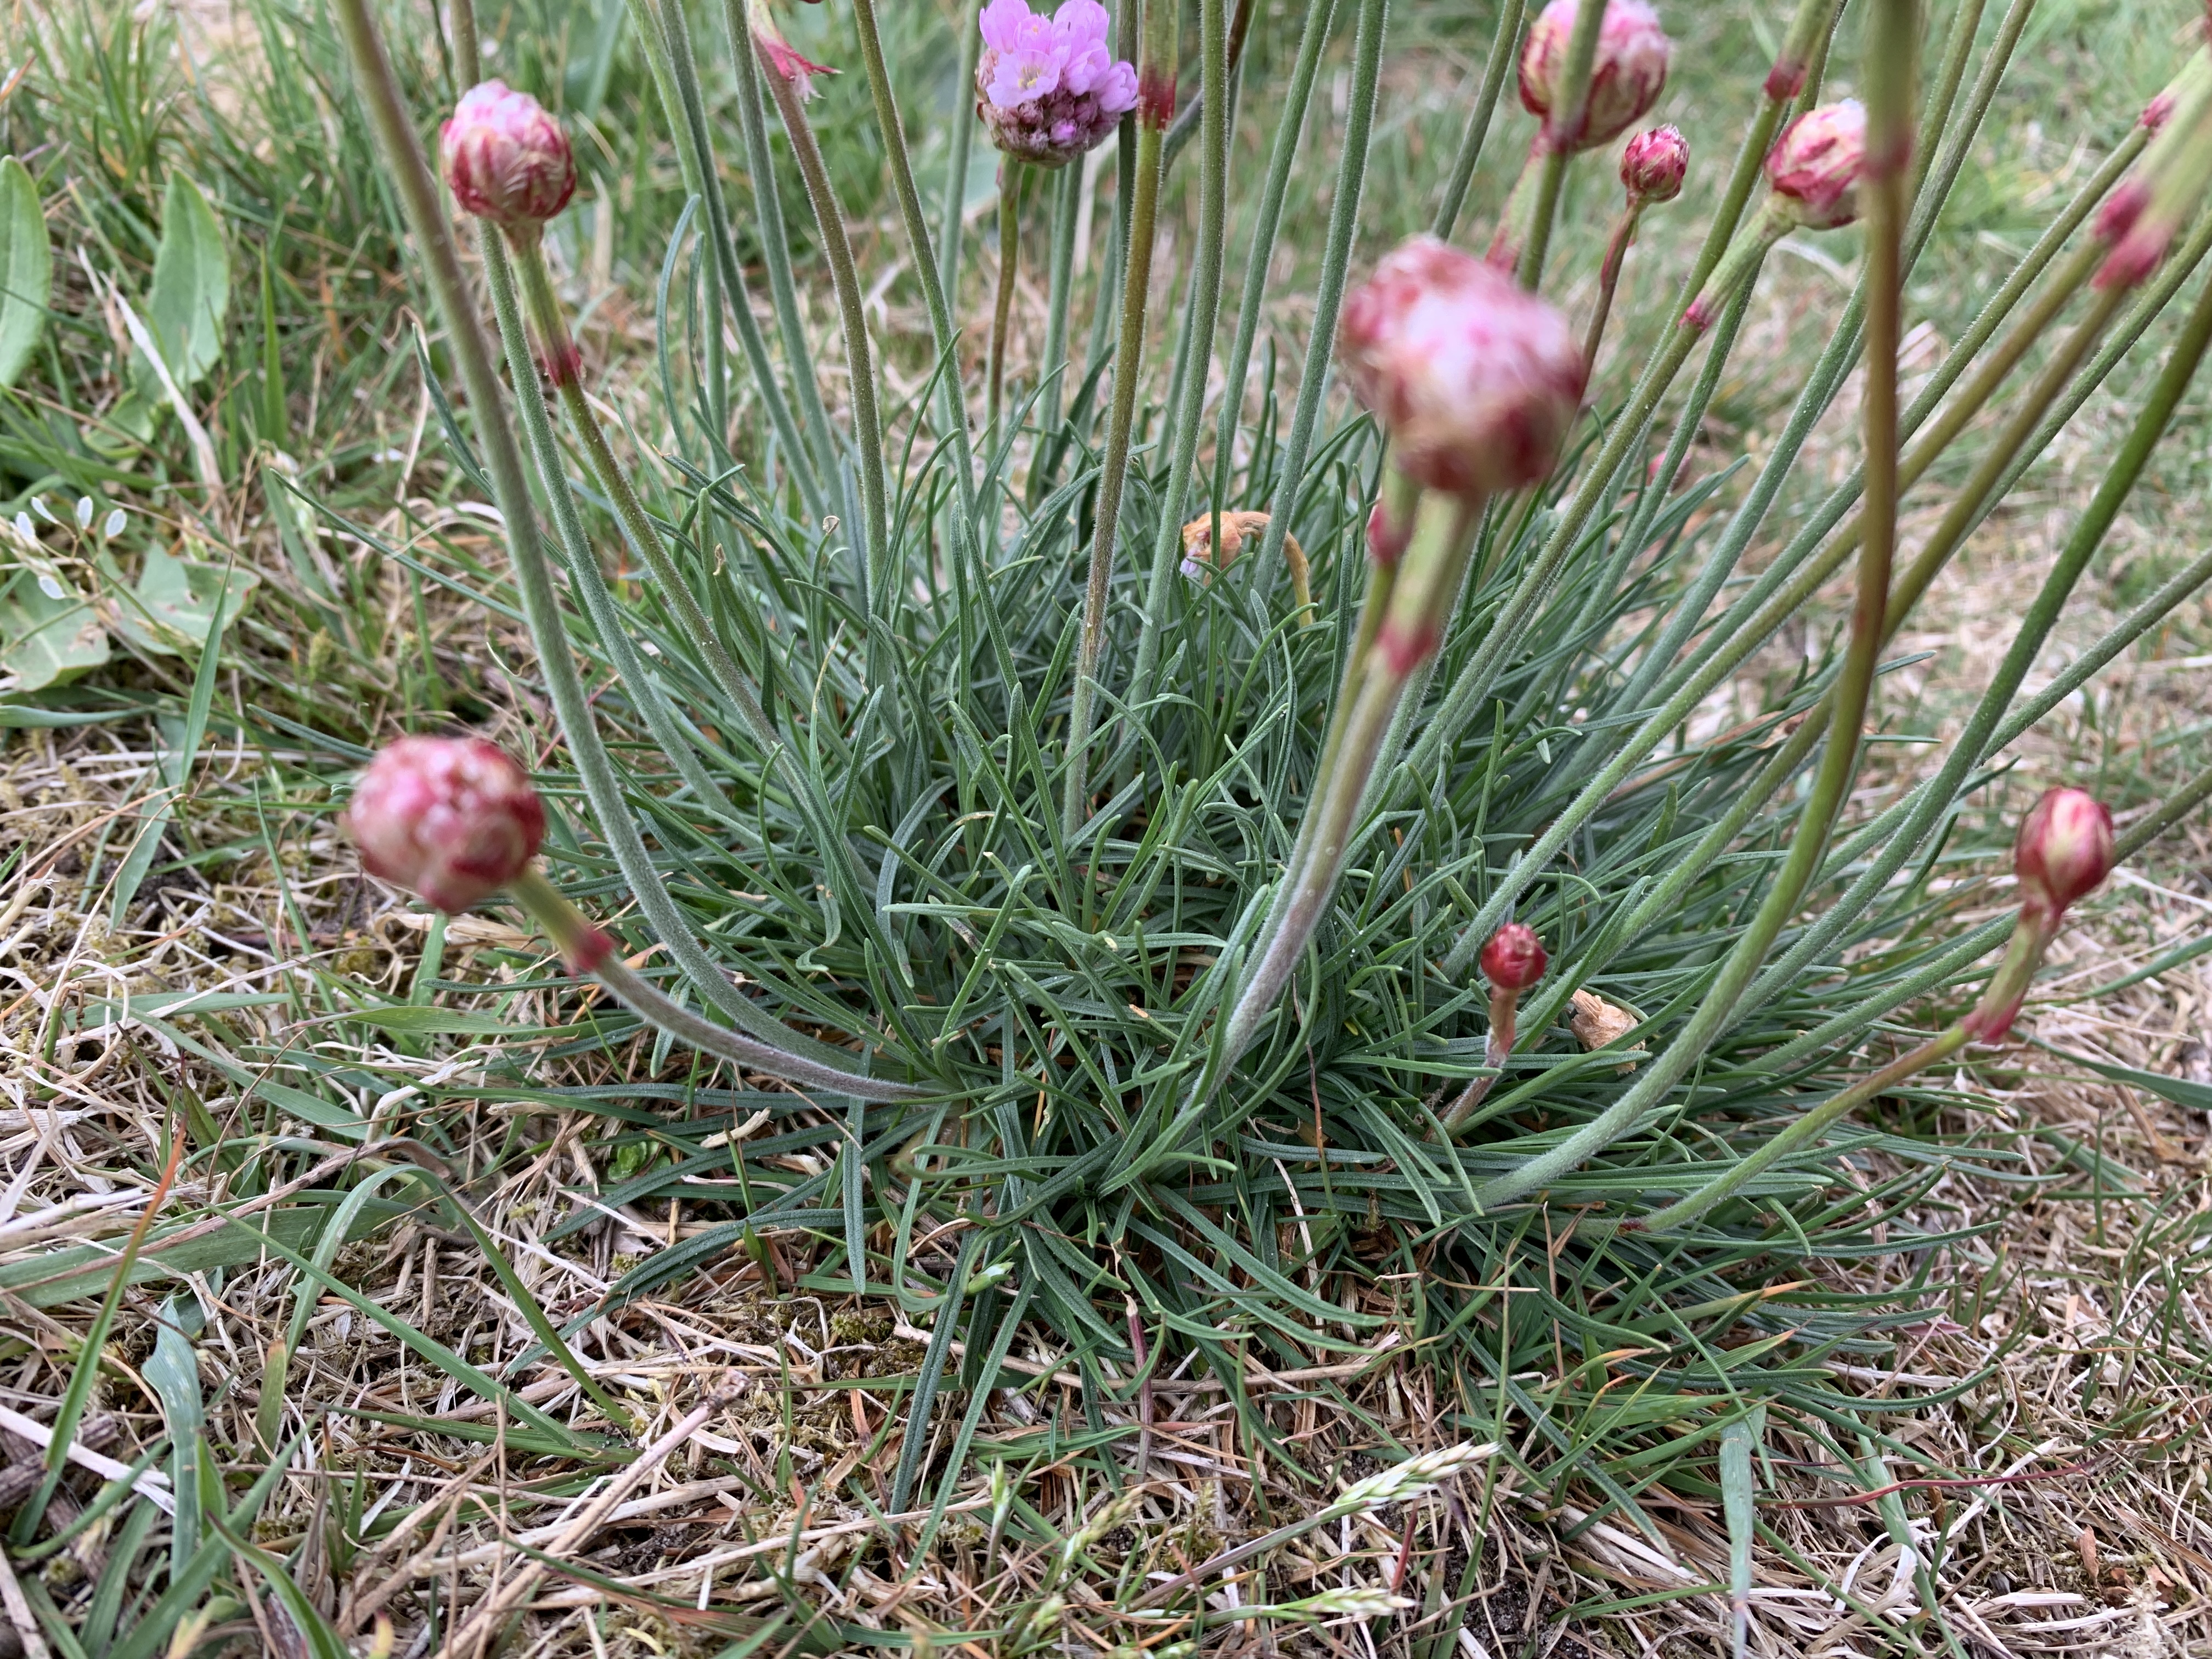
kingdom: Plantae
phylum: Tracheophyta
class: Magnoliopsida
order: Caryophyllales
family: Plumbaginaceae
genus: Armeria
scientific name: Armeria maritima
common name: Engelskgræs
